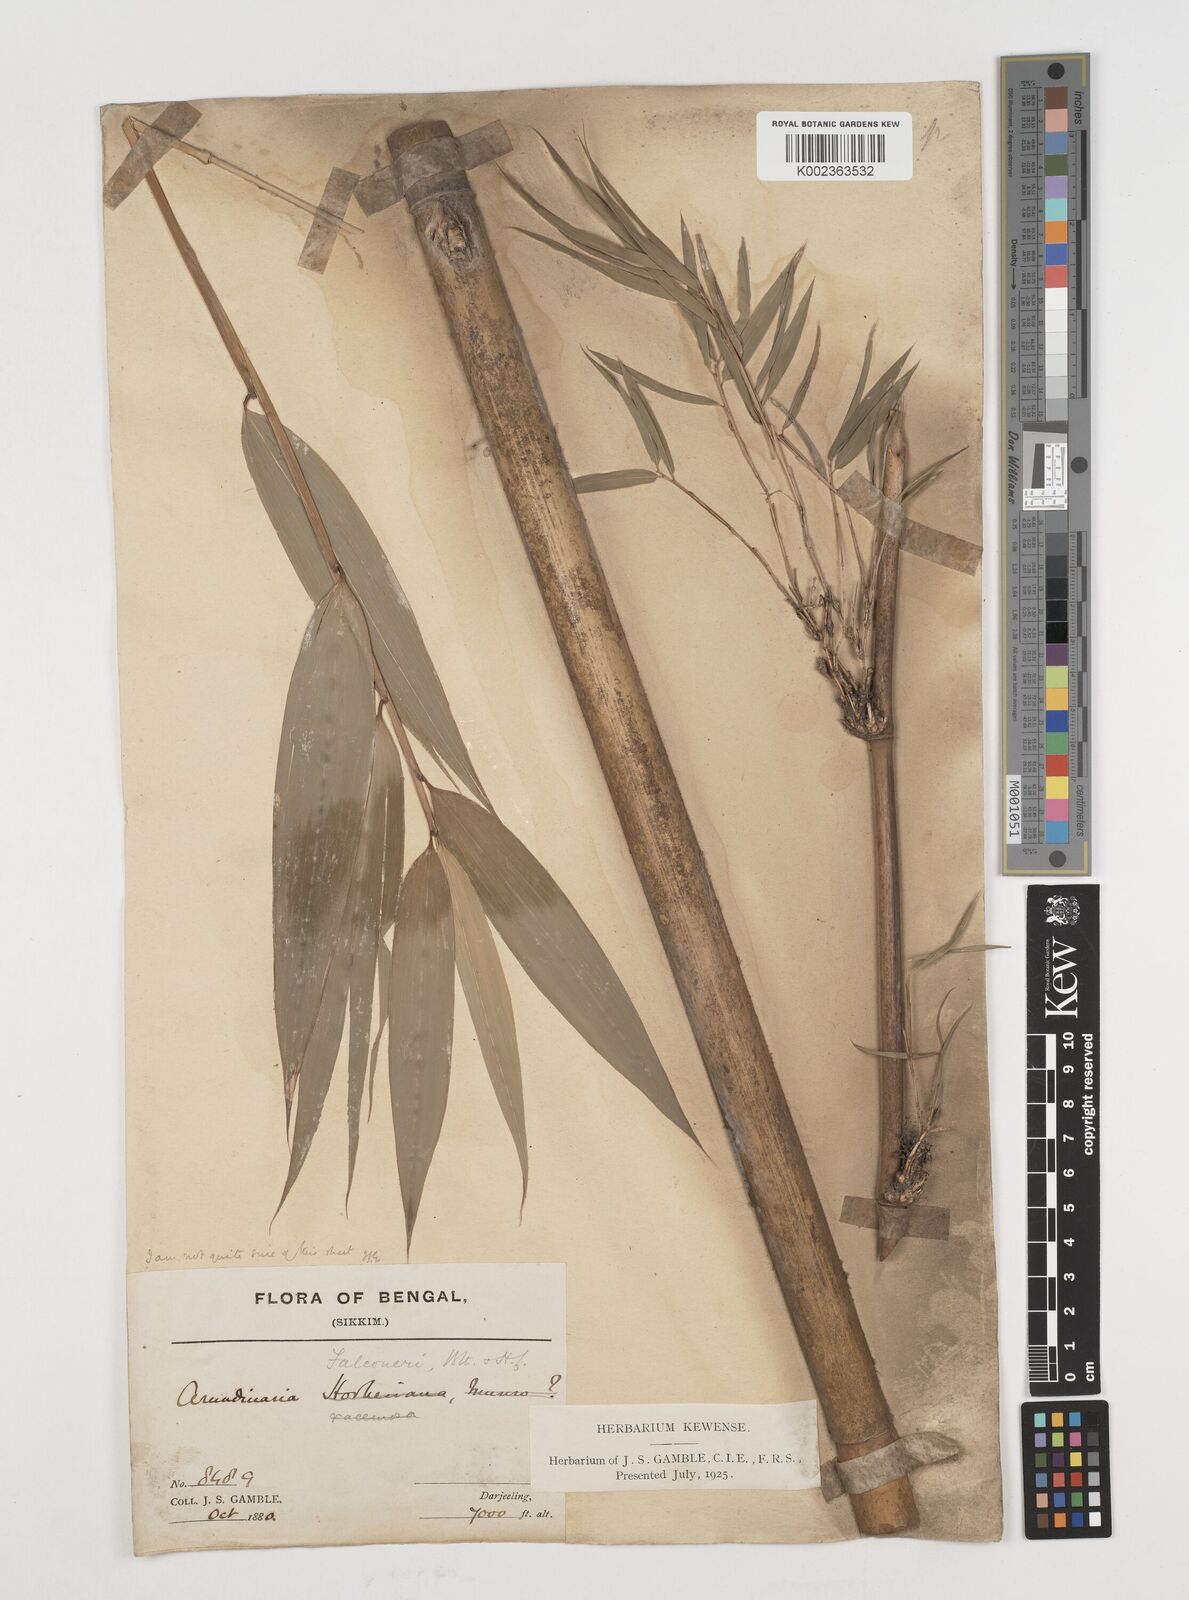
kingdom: Plantae
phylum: Tracheophyta
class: Liliopsida
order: Poales
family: Poaceae
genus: Himalayacalamus
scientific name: Himalayacalamus falconeri
